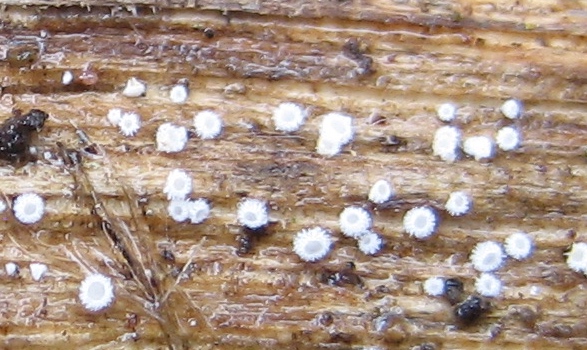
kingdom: Fungi
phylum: Ascomycota
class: Leotiomycetes
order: Helotiales
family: Lachnaceae
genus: Lachnum
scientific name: Lachnum
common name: frynseskive
